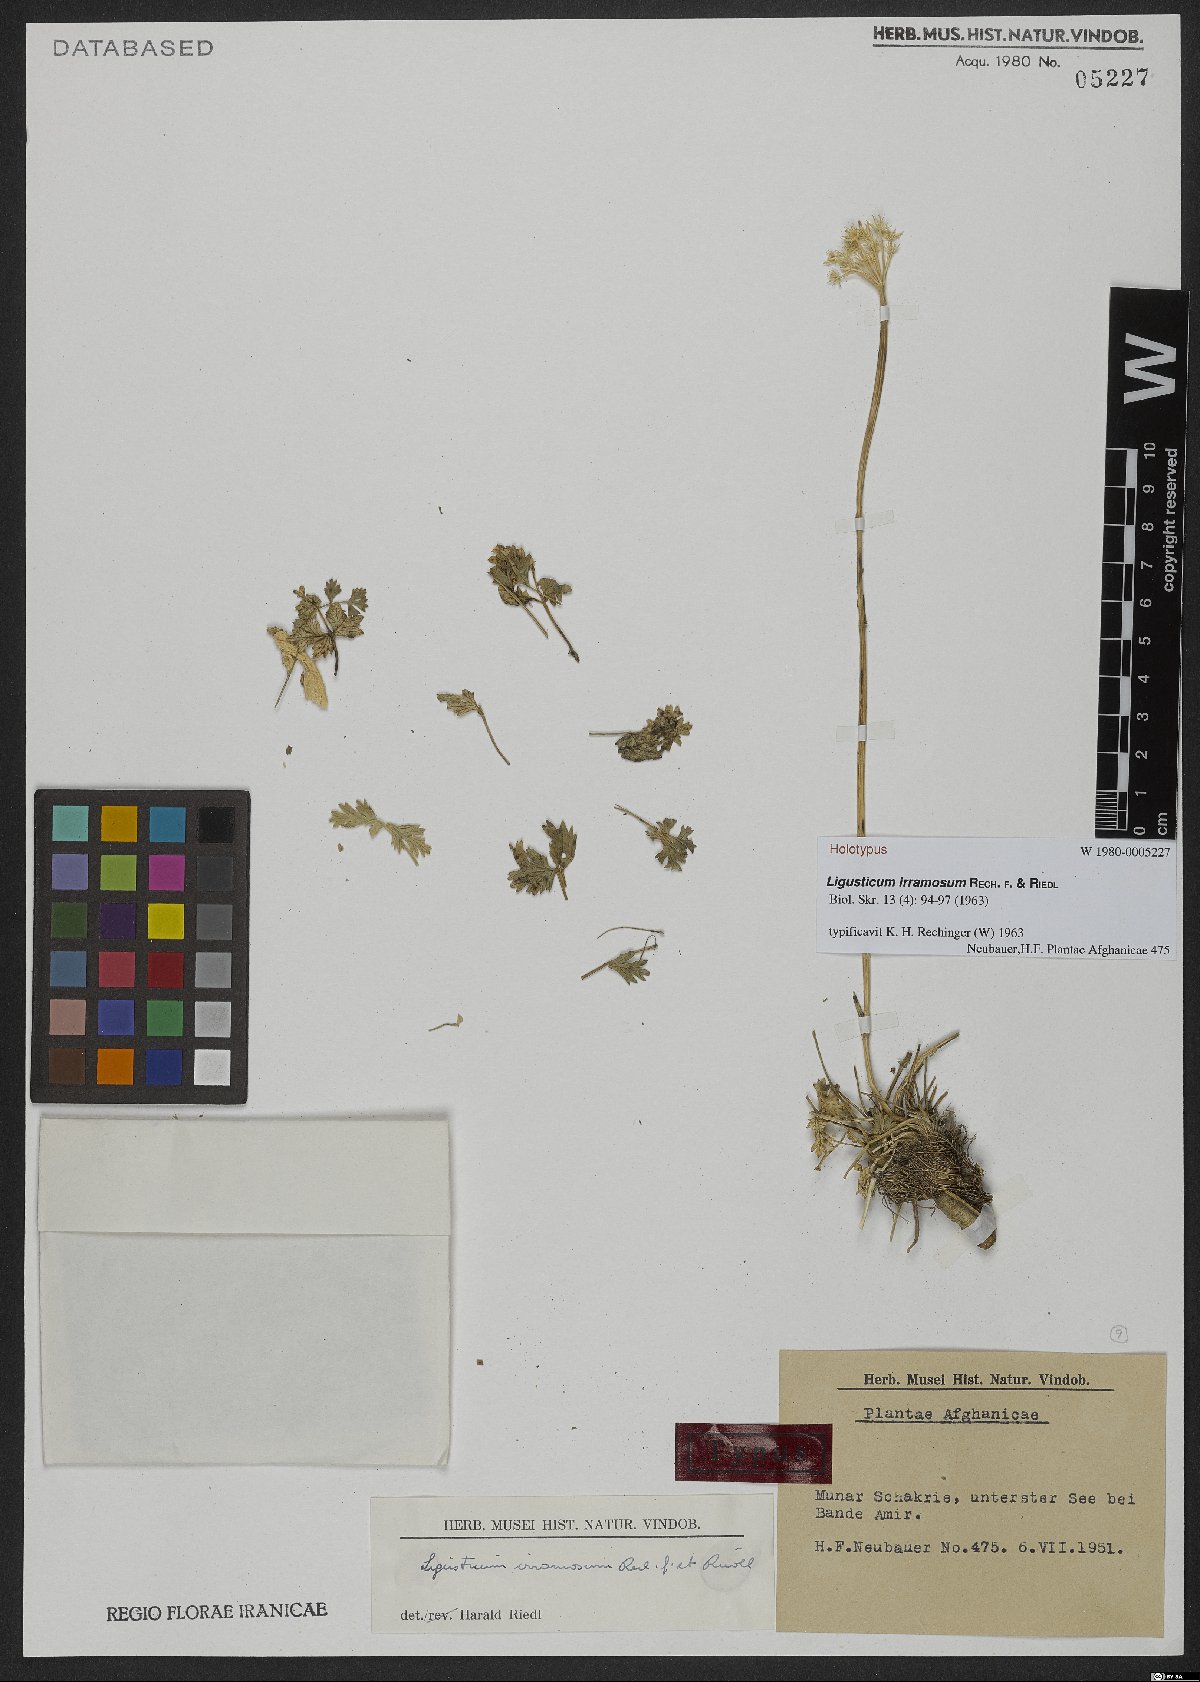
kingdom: Plantae
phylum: Tracheophyta
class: Magnoliopsida
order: Apiales
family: Apiaceae
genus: Ligusticum
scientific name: Ligusticum irramosum
